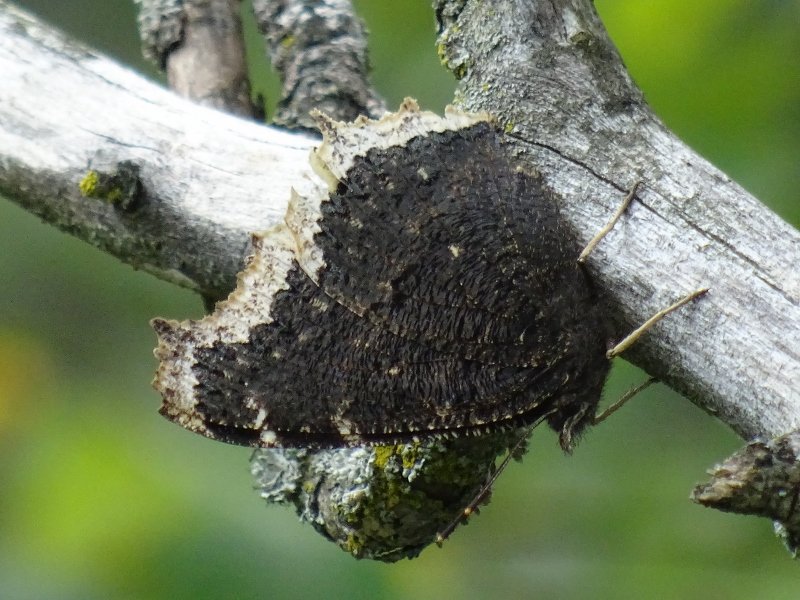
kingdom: Animalia
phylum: Arthropoda
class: Insecta
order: Lepidoptera
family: Nymphalidae
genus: Nymphalis
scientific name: Nymphalis antiopa
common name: Mourning Cloak
